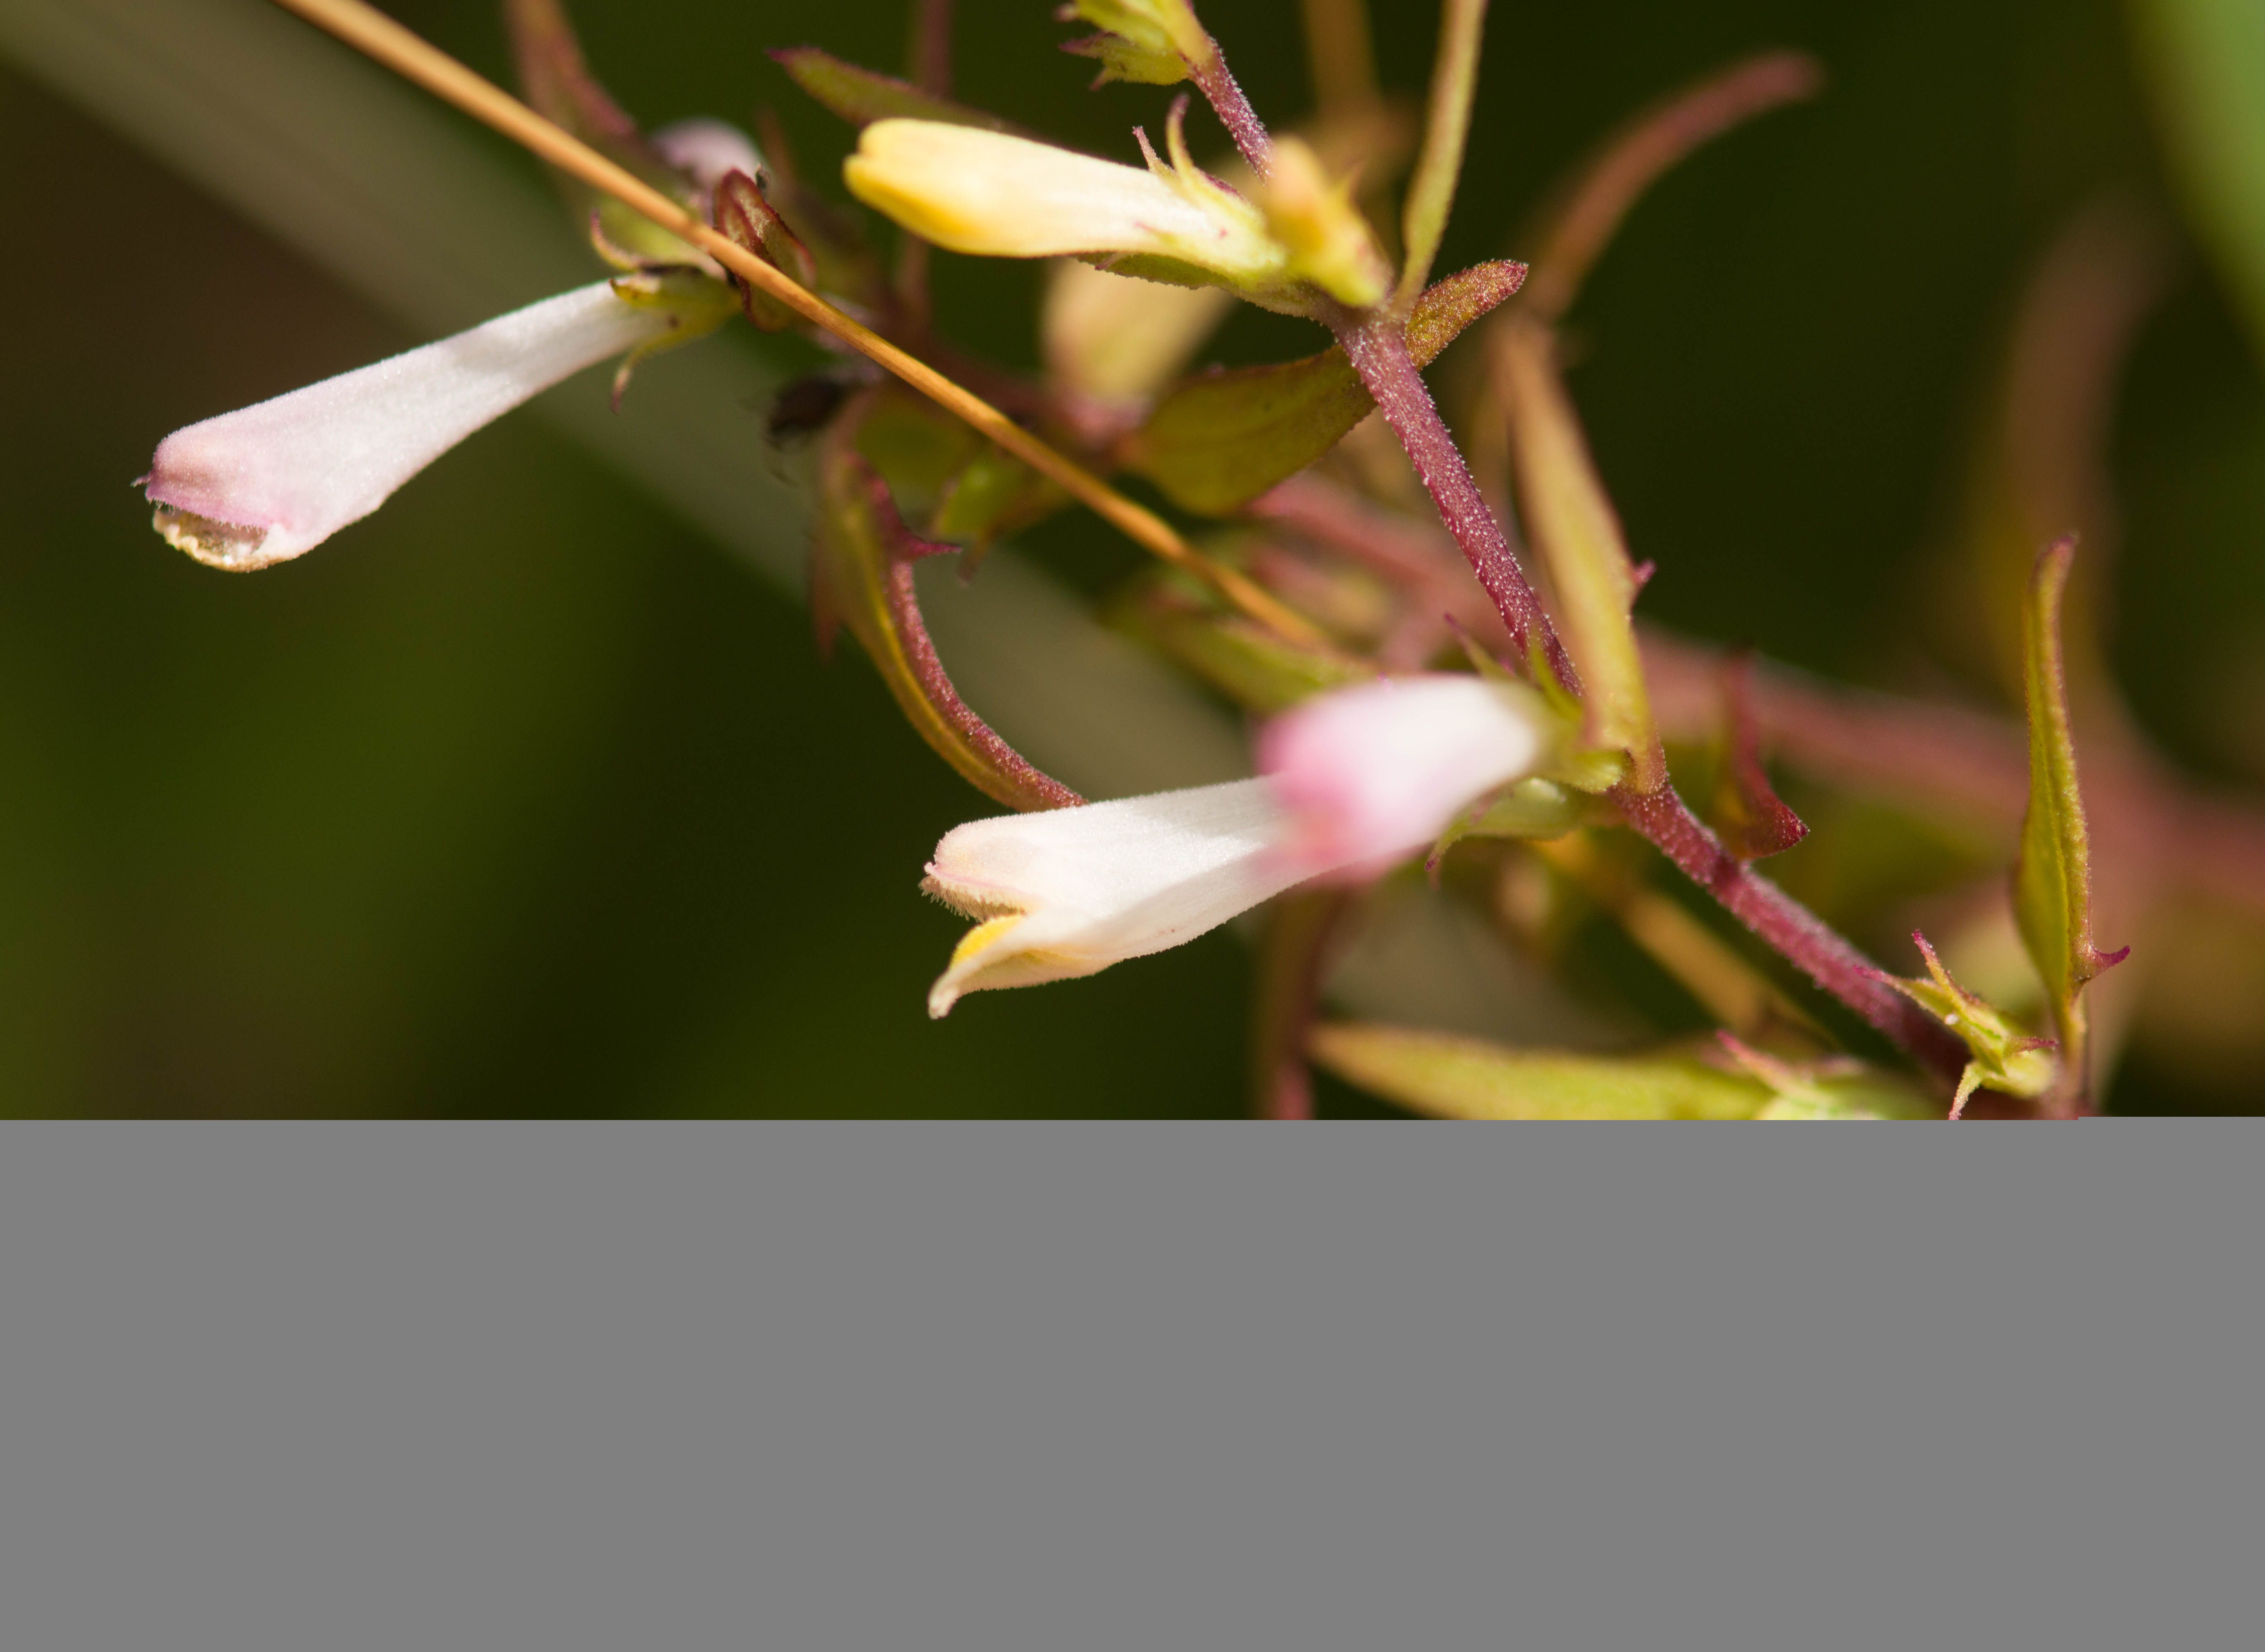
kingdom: Plantae
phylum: Tracheophyta
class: Magnoliopsida
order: Lamiales
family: Orobanchaceae
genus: Melampyrum
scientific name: Melampyrum lineare
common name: American cow-wheat
